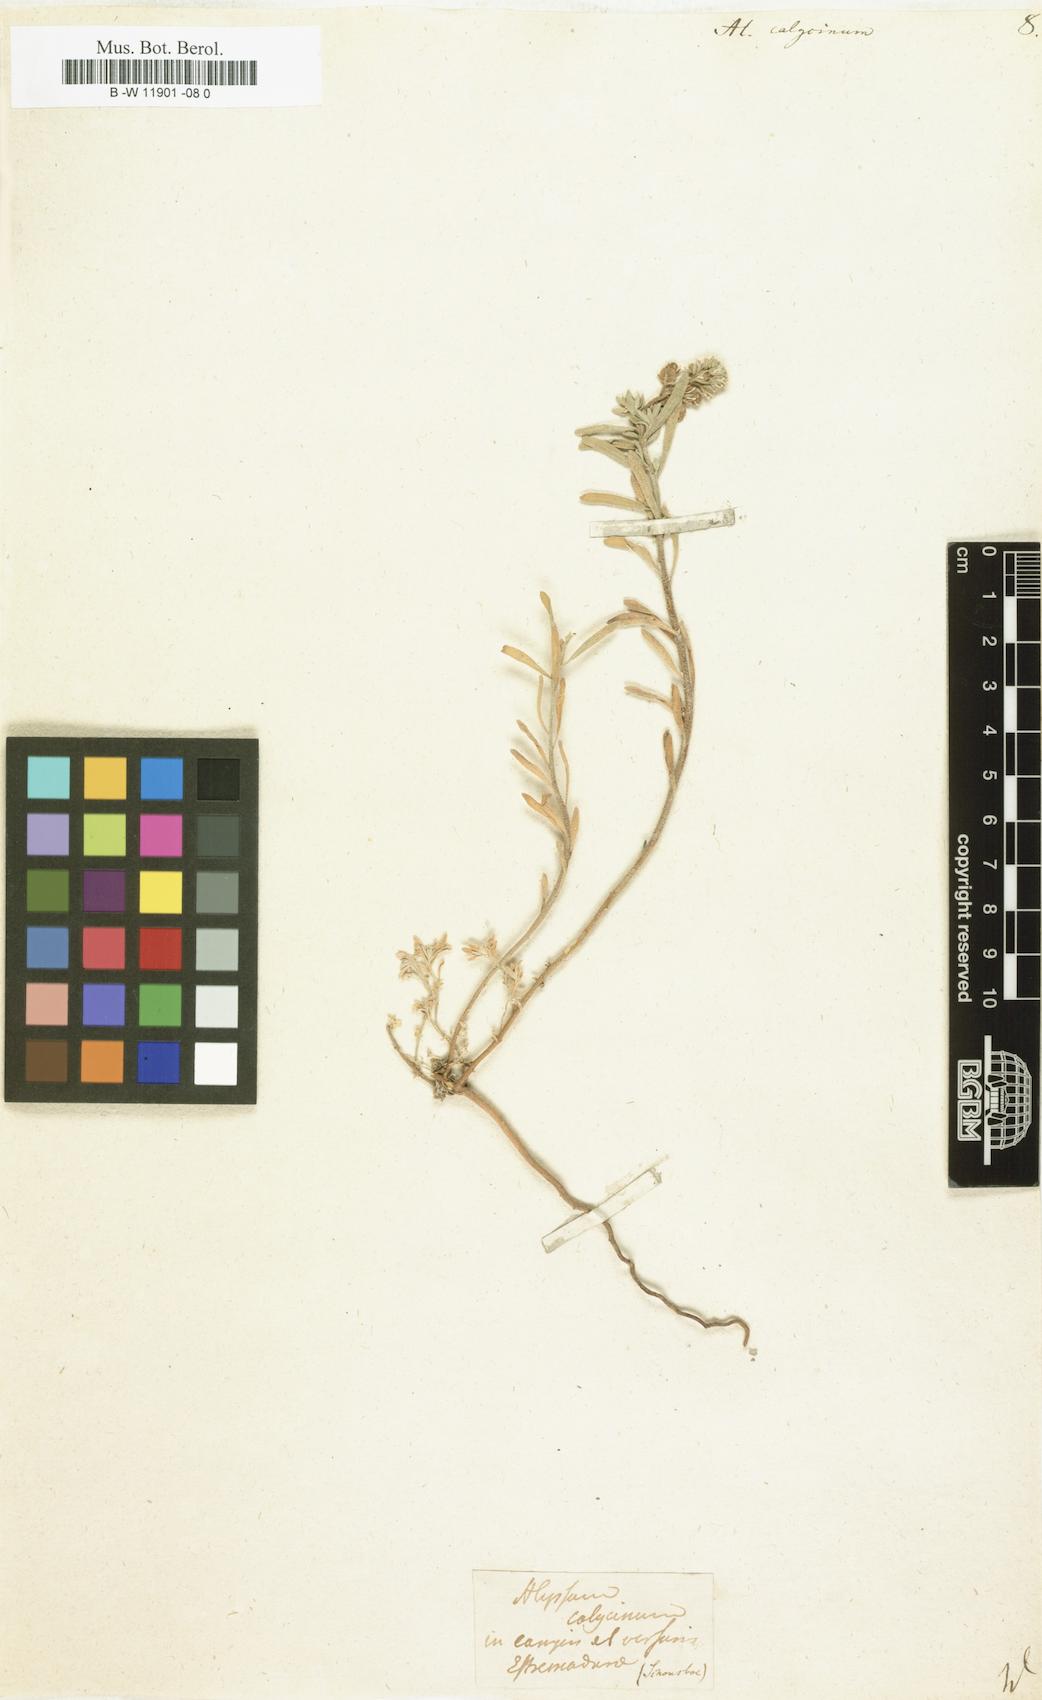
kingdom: Plantae
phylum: Tracheophyta
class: Magnoliopsida
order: Brassicales
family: Brassicaceae
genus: Alyssum
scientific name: Alyssum alyssoides
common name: Small alison
